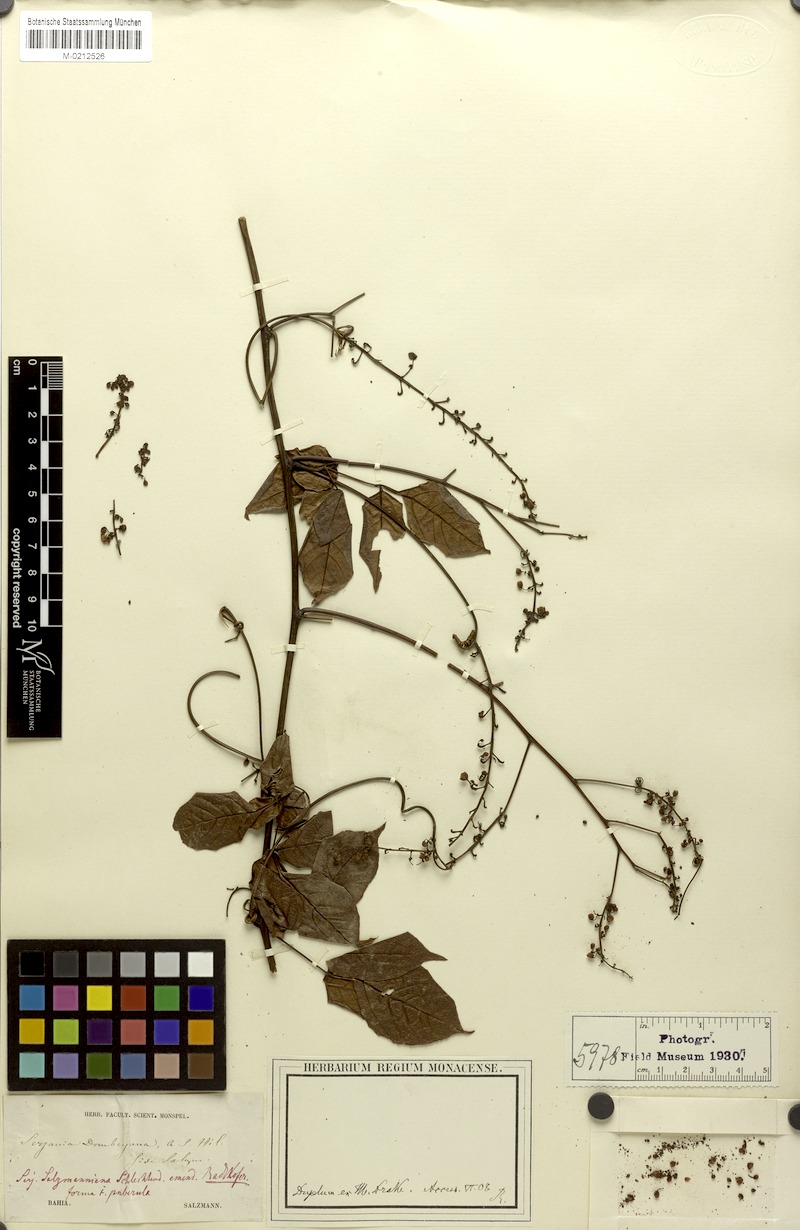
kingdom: Plantae
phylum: Tracheophyta
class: Magnoliopsida
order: Sapindales
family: Sapindaceae
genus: Serjania
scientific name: Serjania salzmanniana
